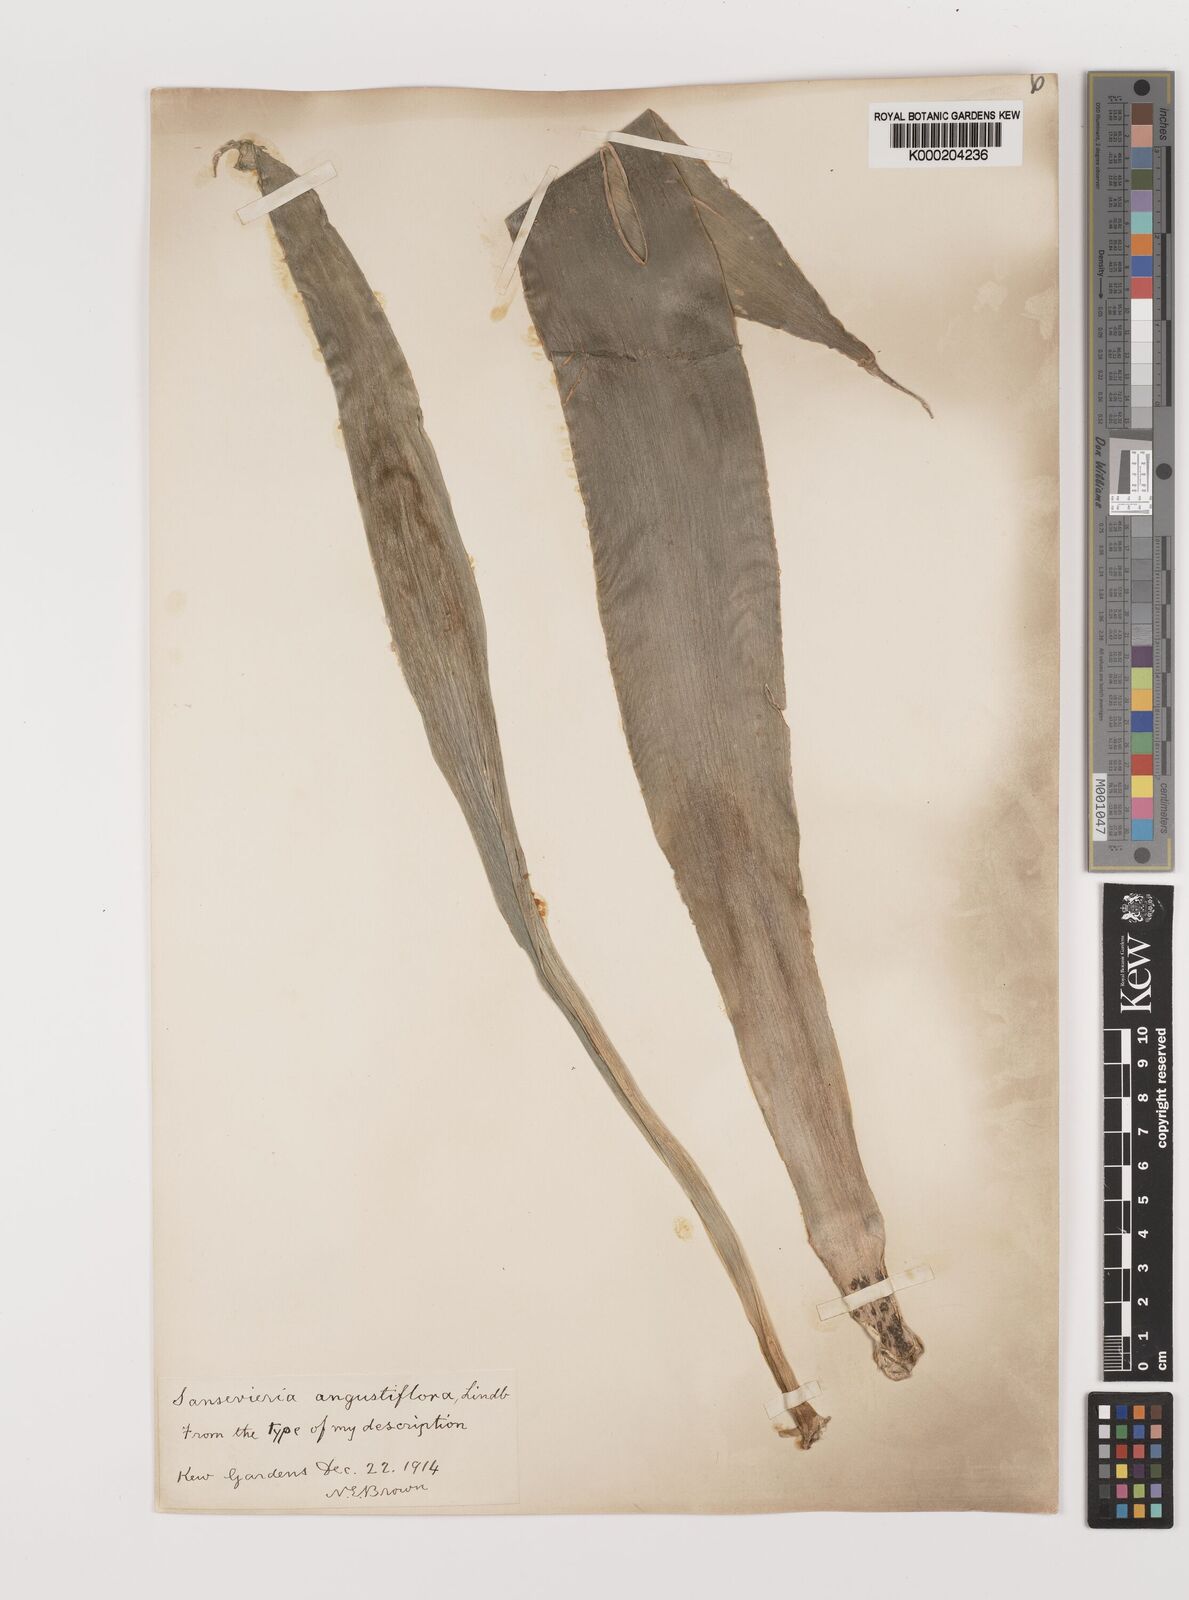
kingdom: Plantae
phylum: Tracheophyta
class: Liliopsida
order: Asparagales
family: Asparagaceae
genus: Dracaena
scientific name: Dracaena hyacinthoides
